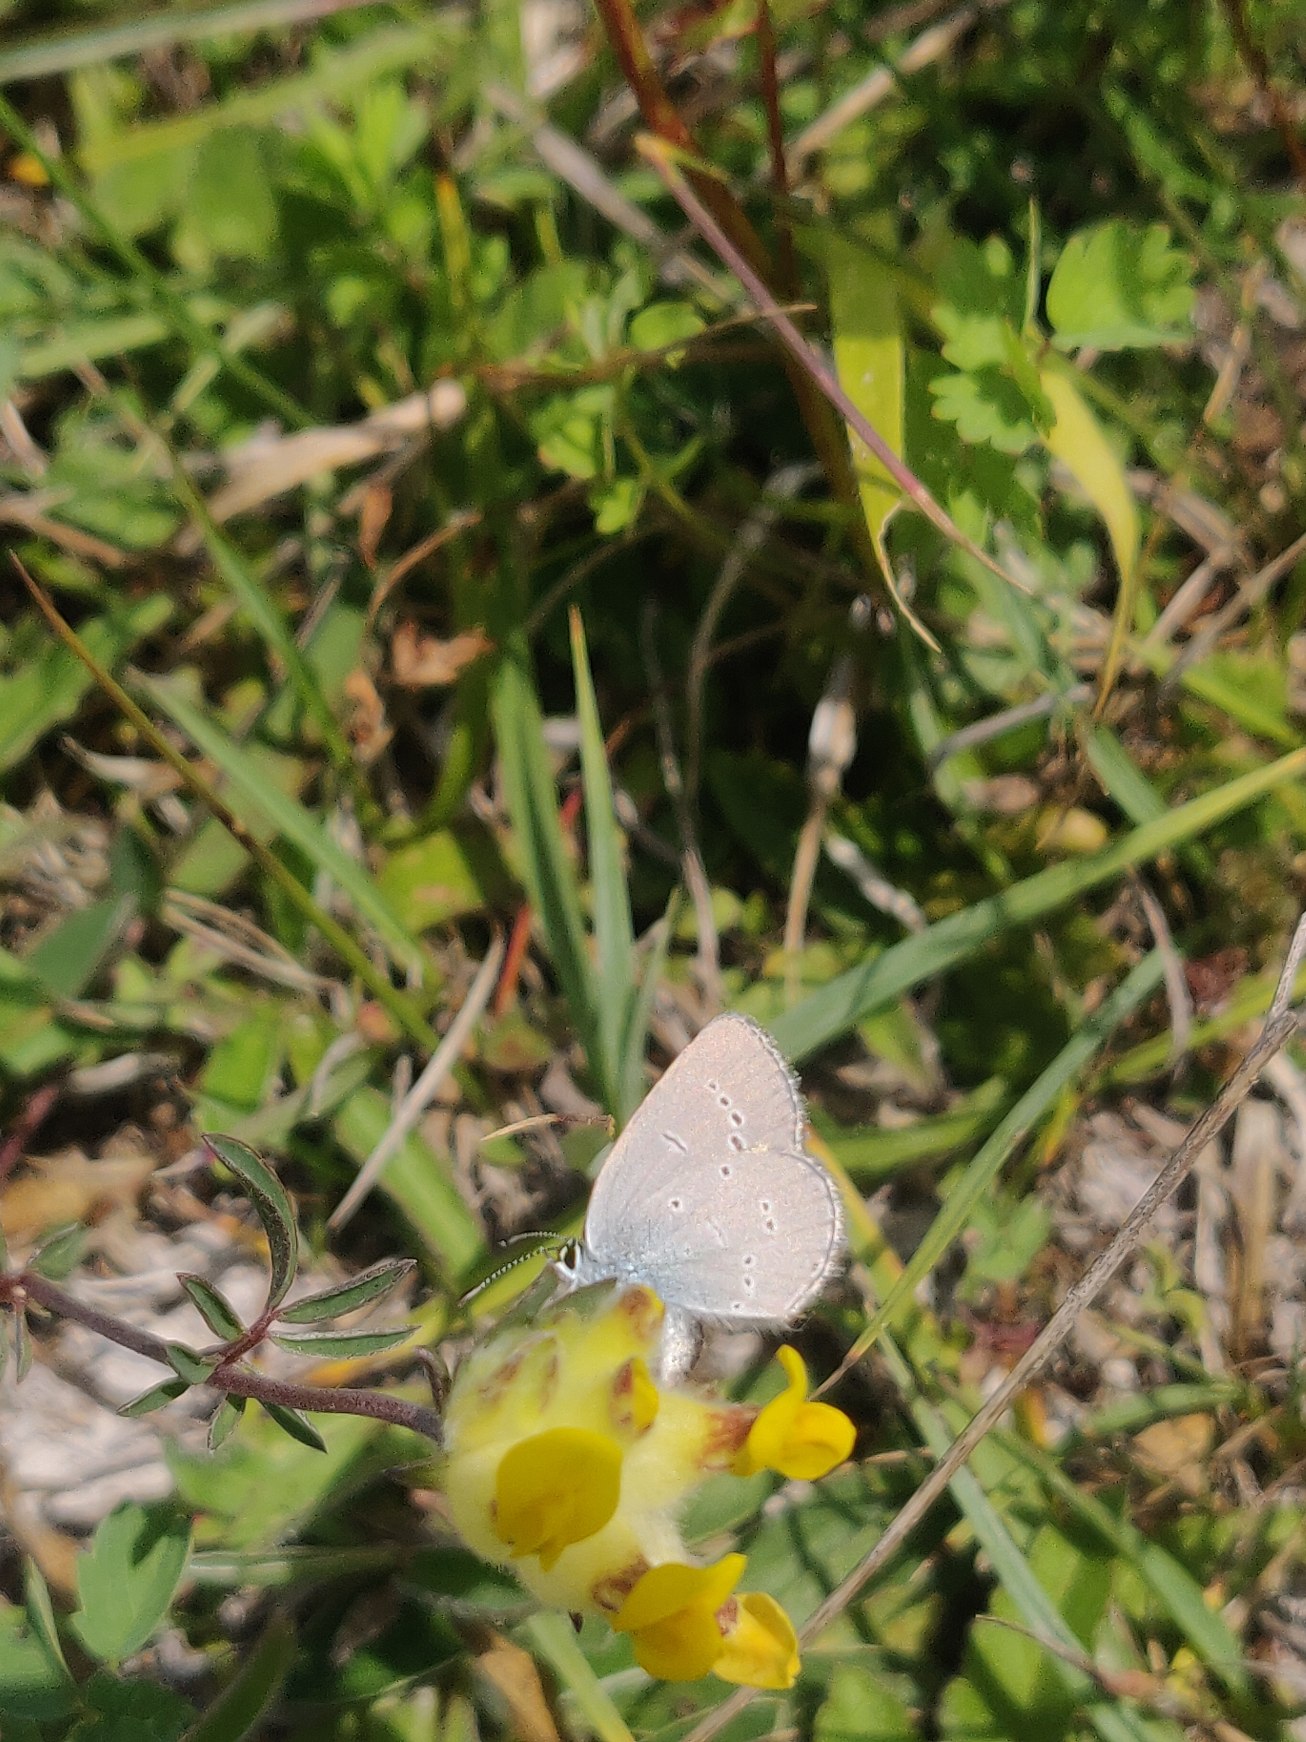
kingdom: Animalia
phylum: Arthropoda
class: Insecta
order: Lepidoptera
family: Lycaenidae
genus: Cupido
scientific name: Cupido minimus
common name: Dværgblåfugl
